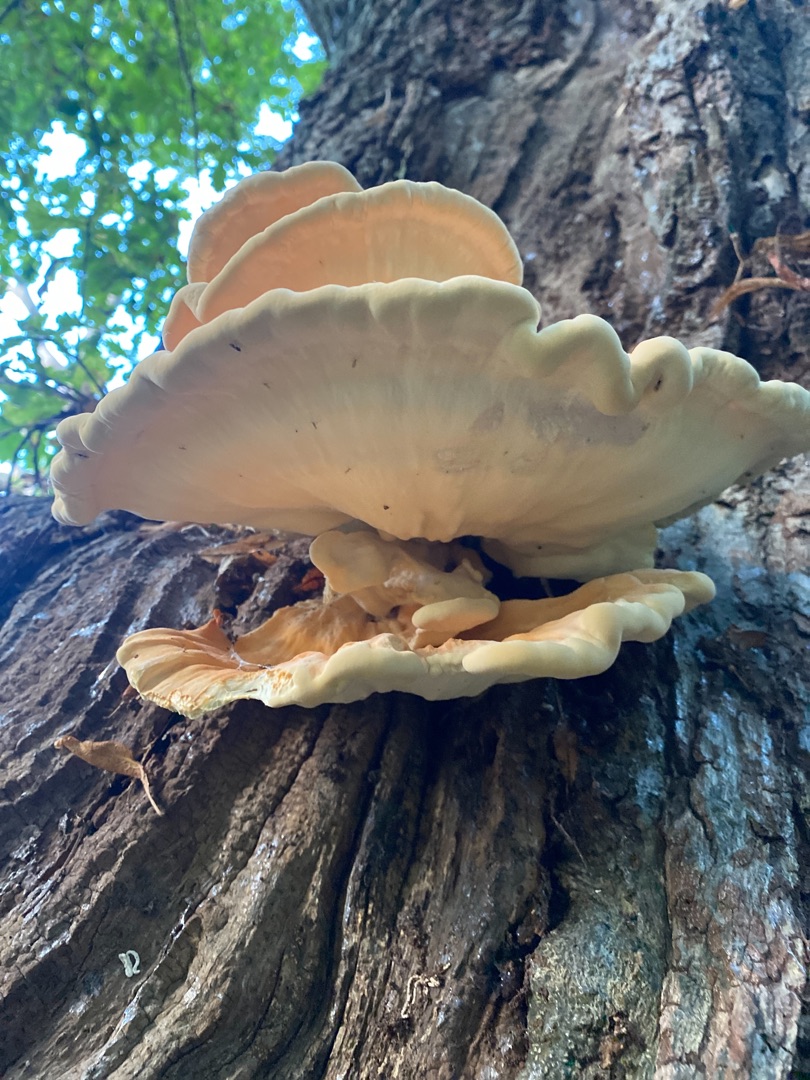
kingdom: Fungi
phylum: Basidiomycota
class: Agaricomycetes
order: Polyporales
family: Laetiporaceae
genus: Laetiporus
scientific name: Laetiporus sulphureus
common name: Svovlporesvamp
